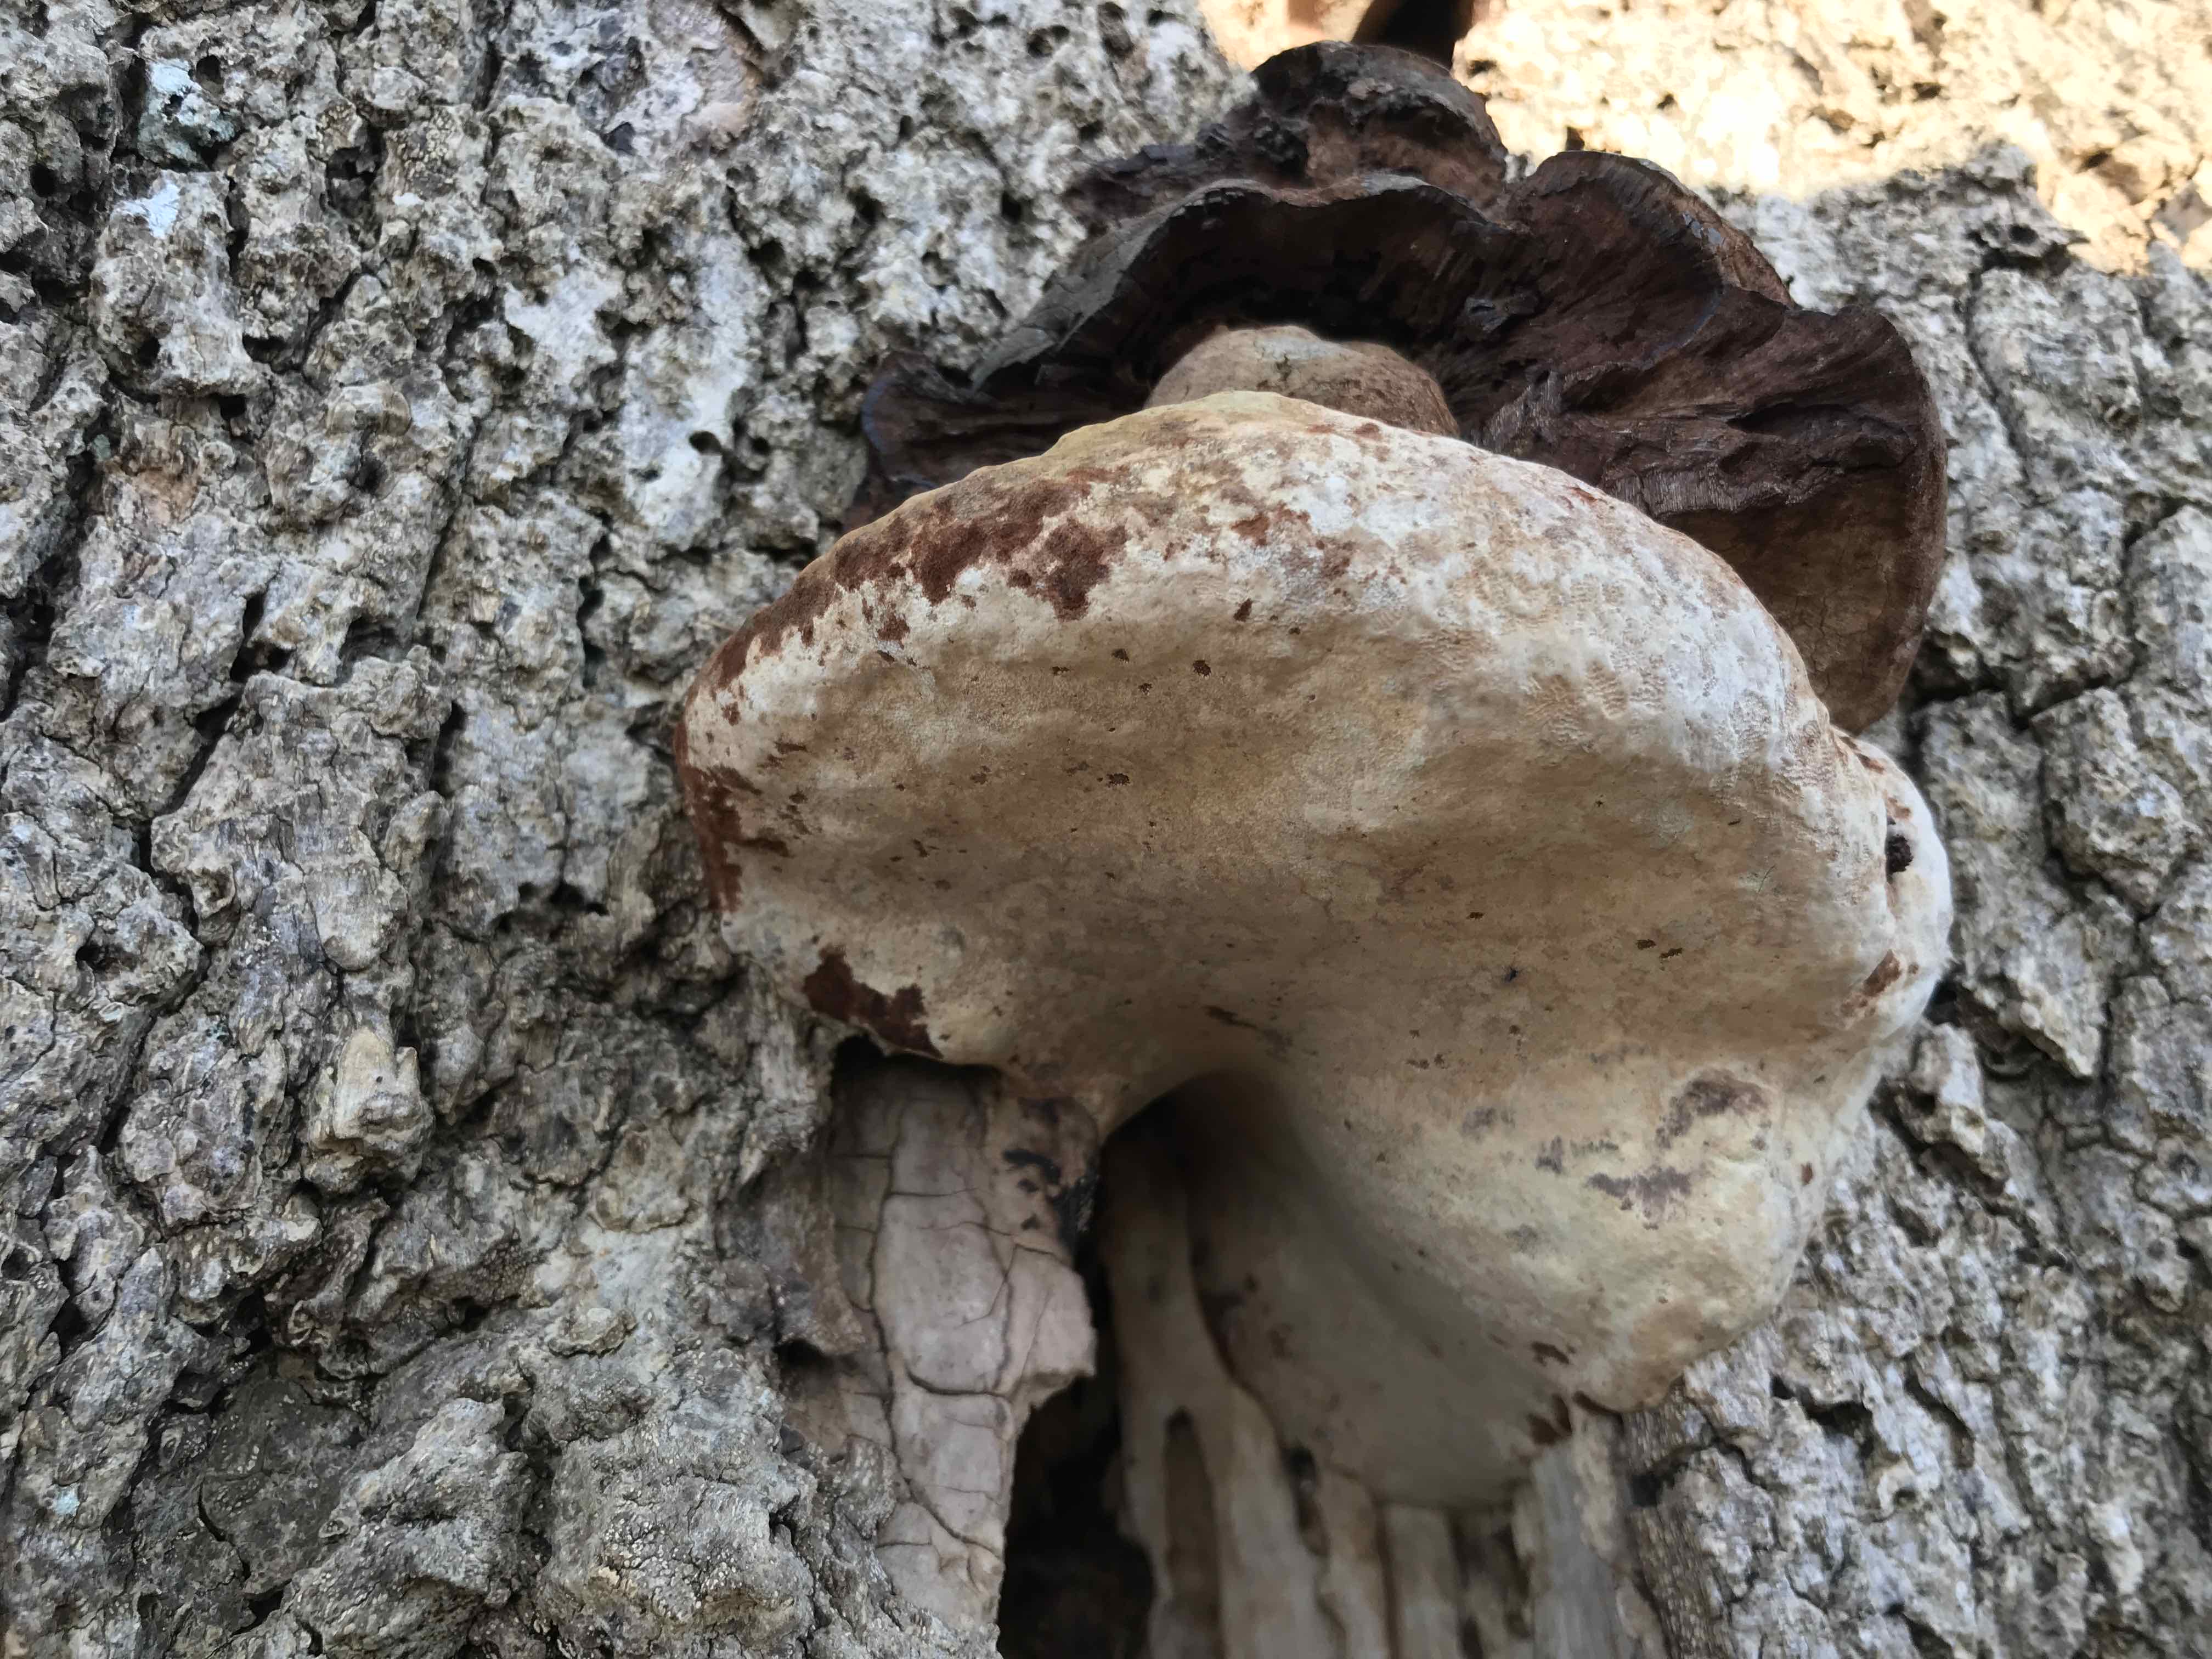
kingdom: Fungi
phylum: Basidiomycota
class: Agaricomycetes
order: Polyporales
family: Polyporaceae
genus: Ganoderma
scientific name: Ganoderma adspersum
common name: grov lakporesvamp
